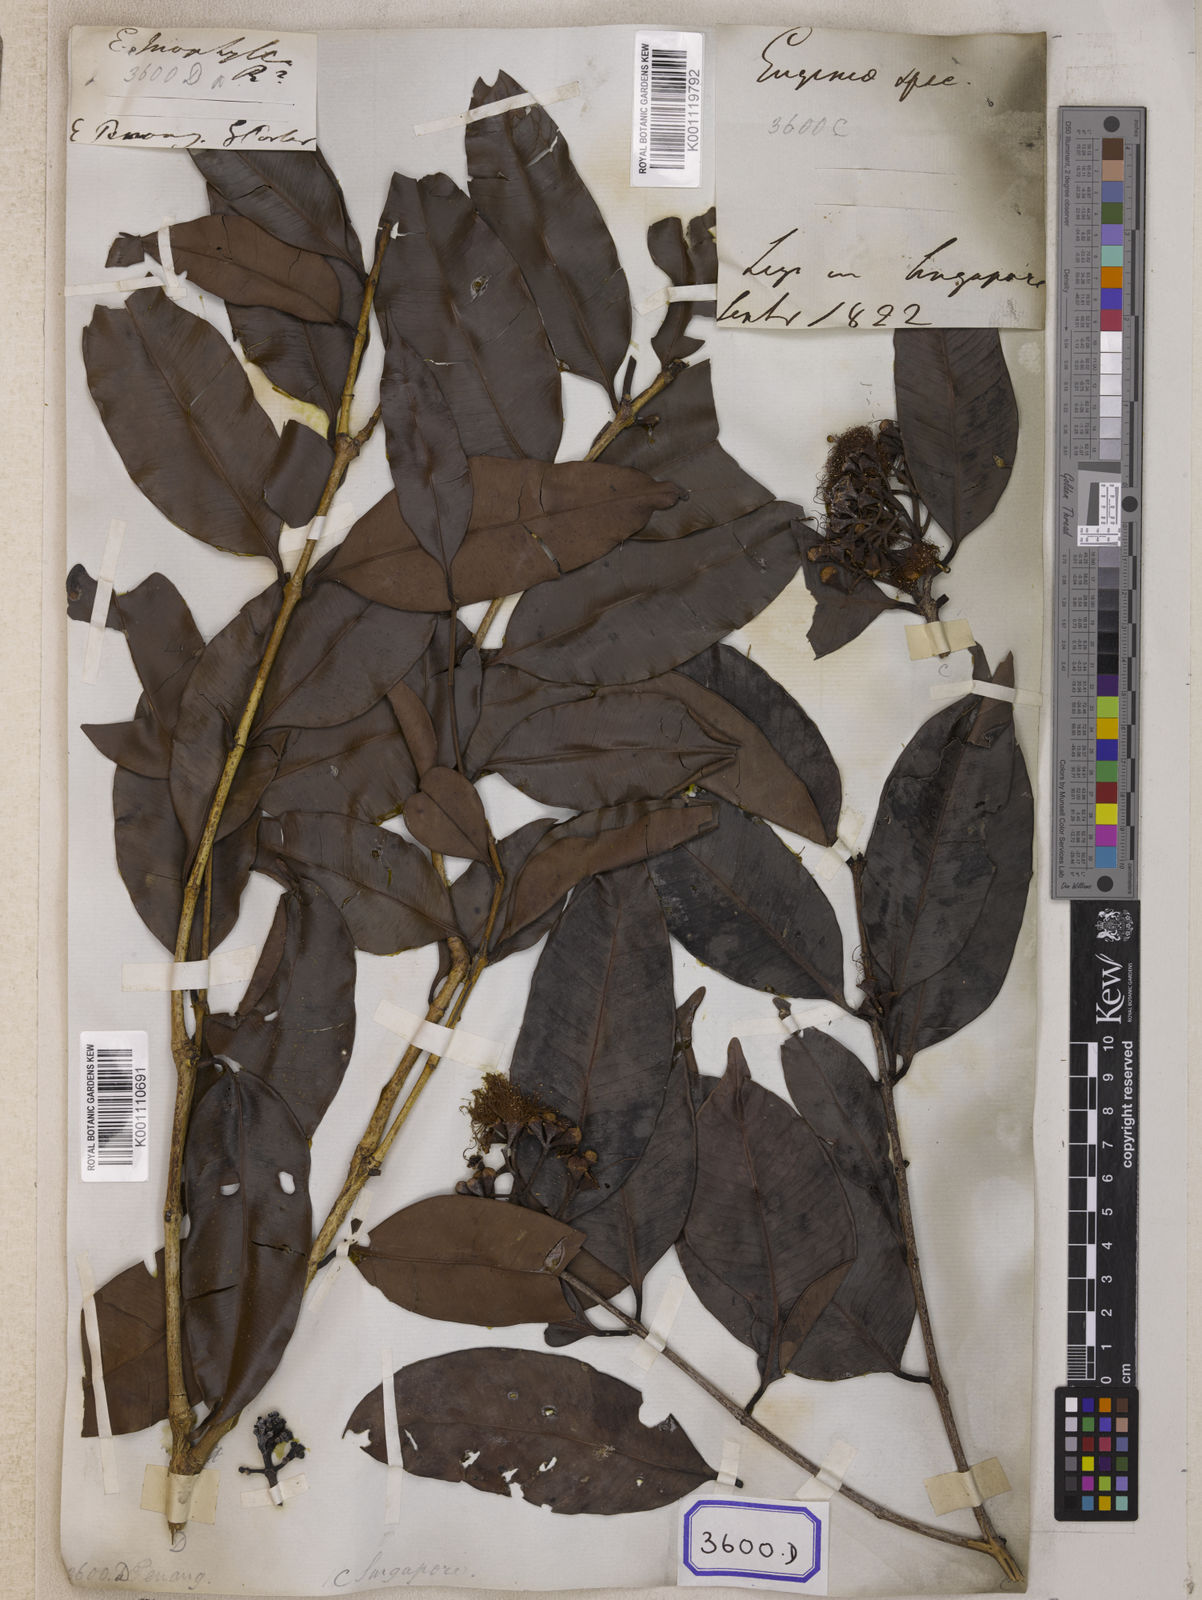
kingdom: Plantae
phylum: Tracheophyta
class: Magnoliopsida
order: Myrtales
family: Myrtaceae
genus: Syzygium
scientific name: Syzygium inophyllum
